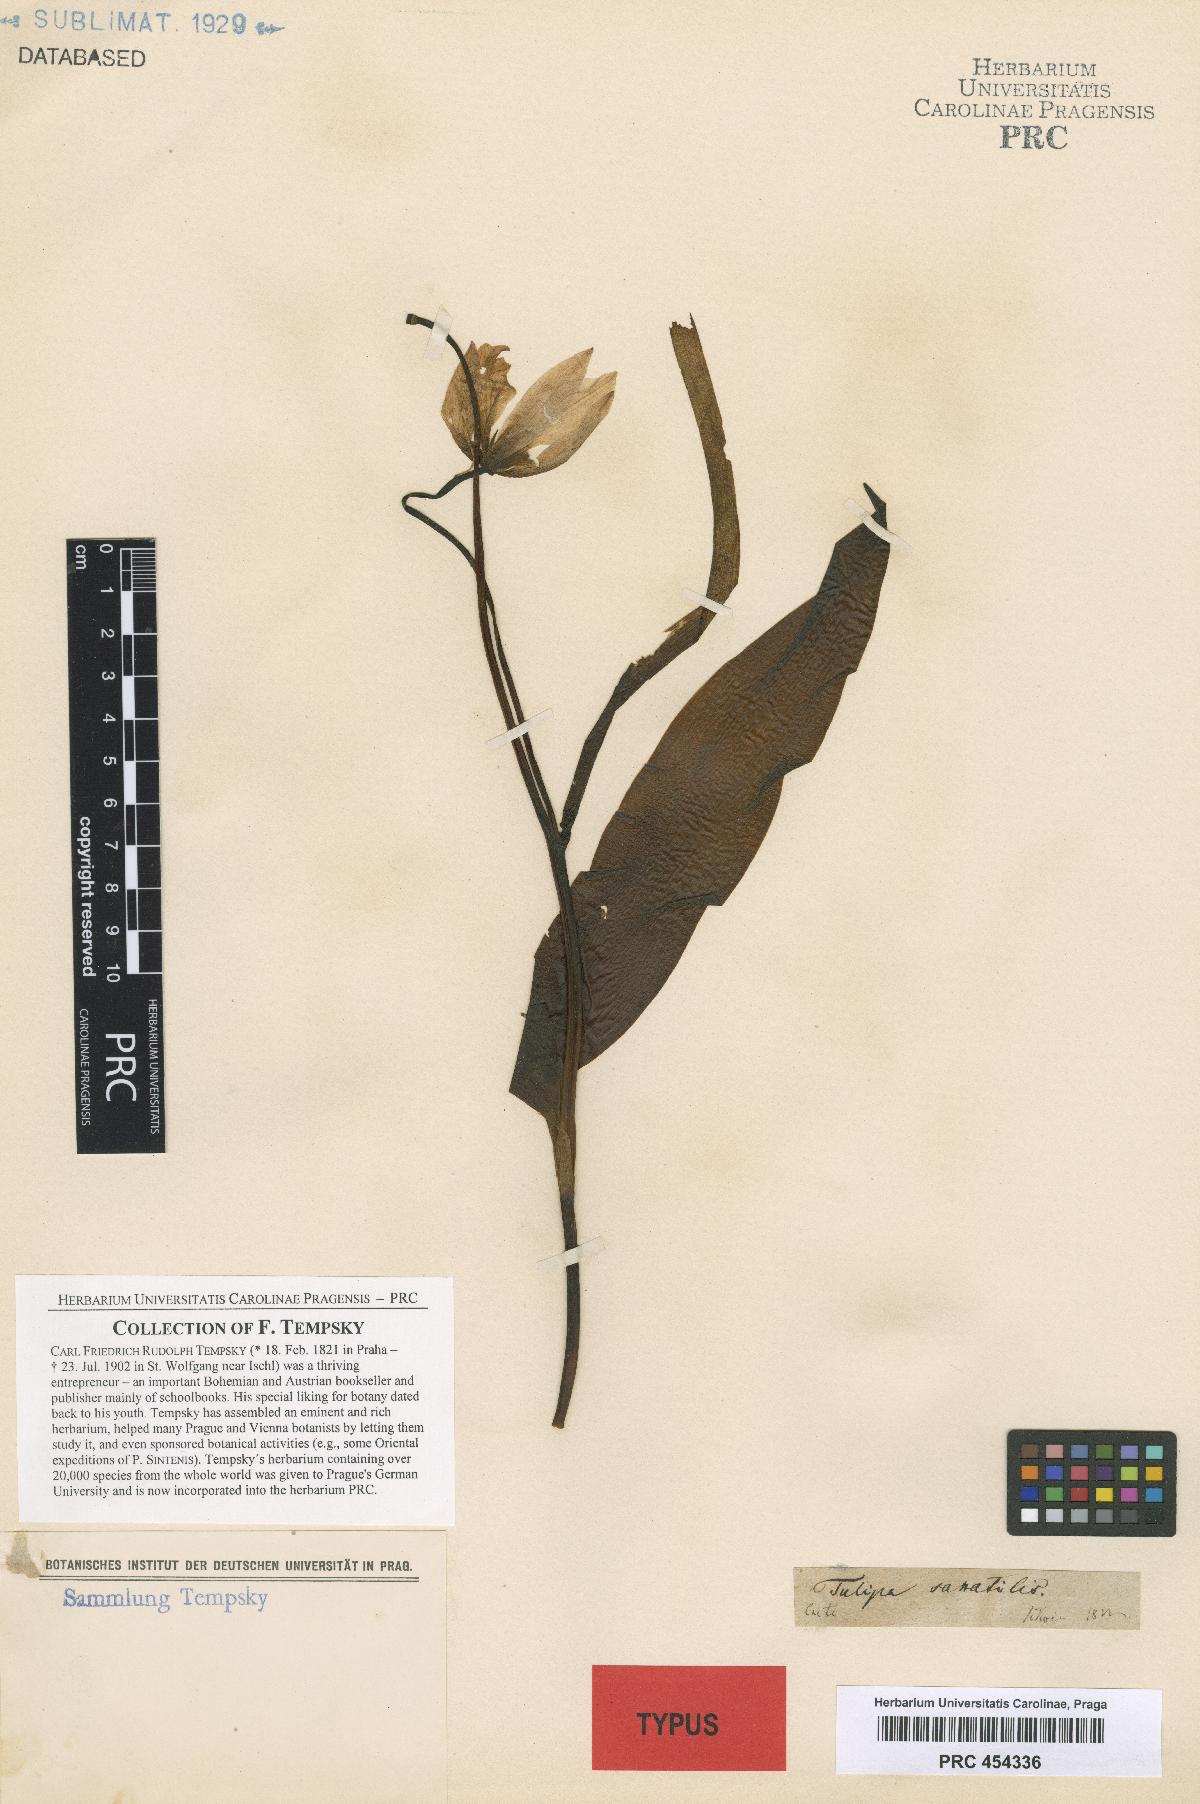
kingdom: Plantae
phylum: Tracheophyta
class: Liliopsida
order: Liliales
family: Liliaceae
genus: Tulipa
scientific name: Tulipa saxatilis
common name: Cretan tulip
